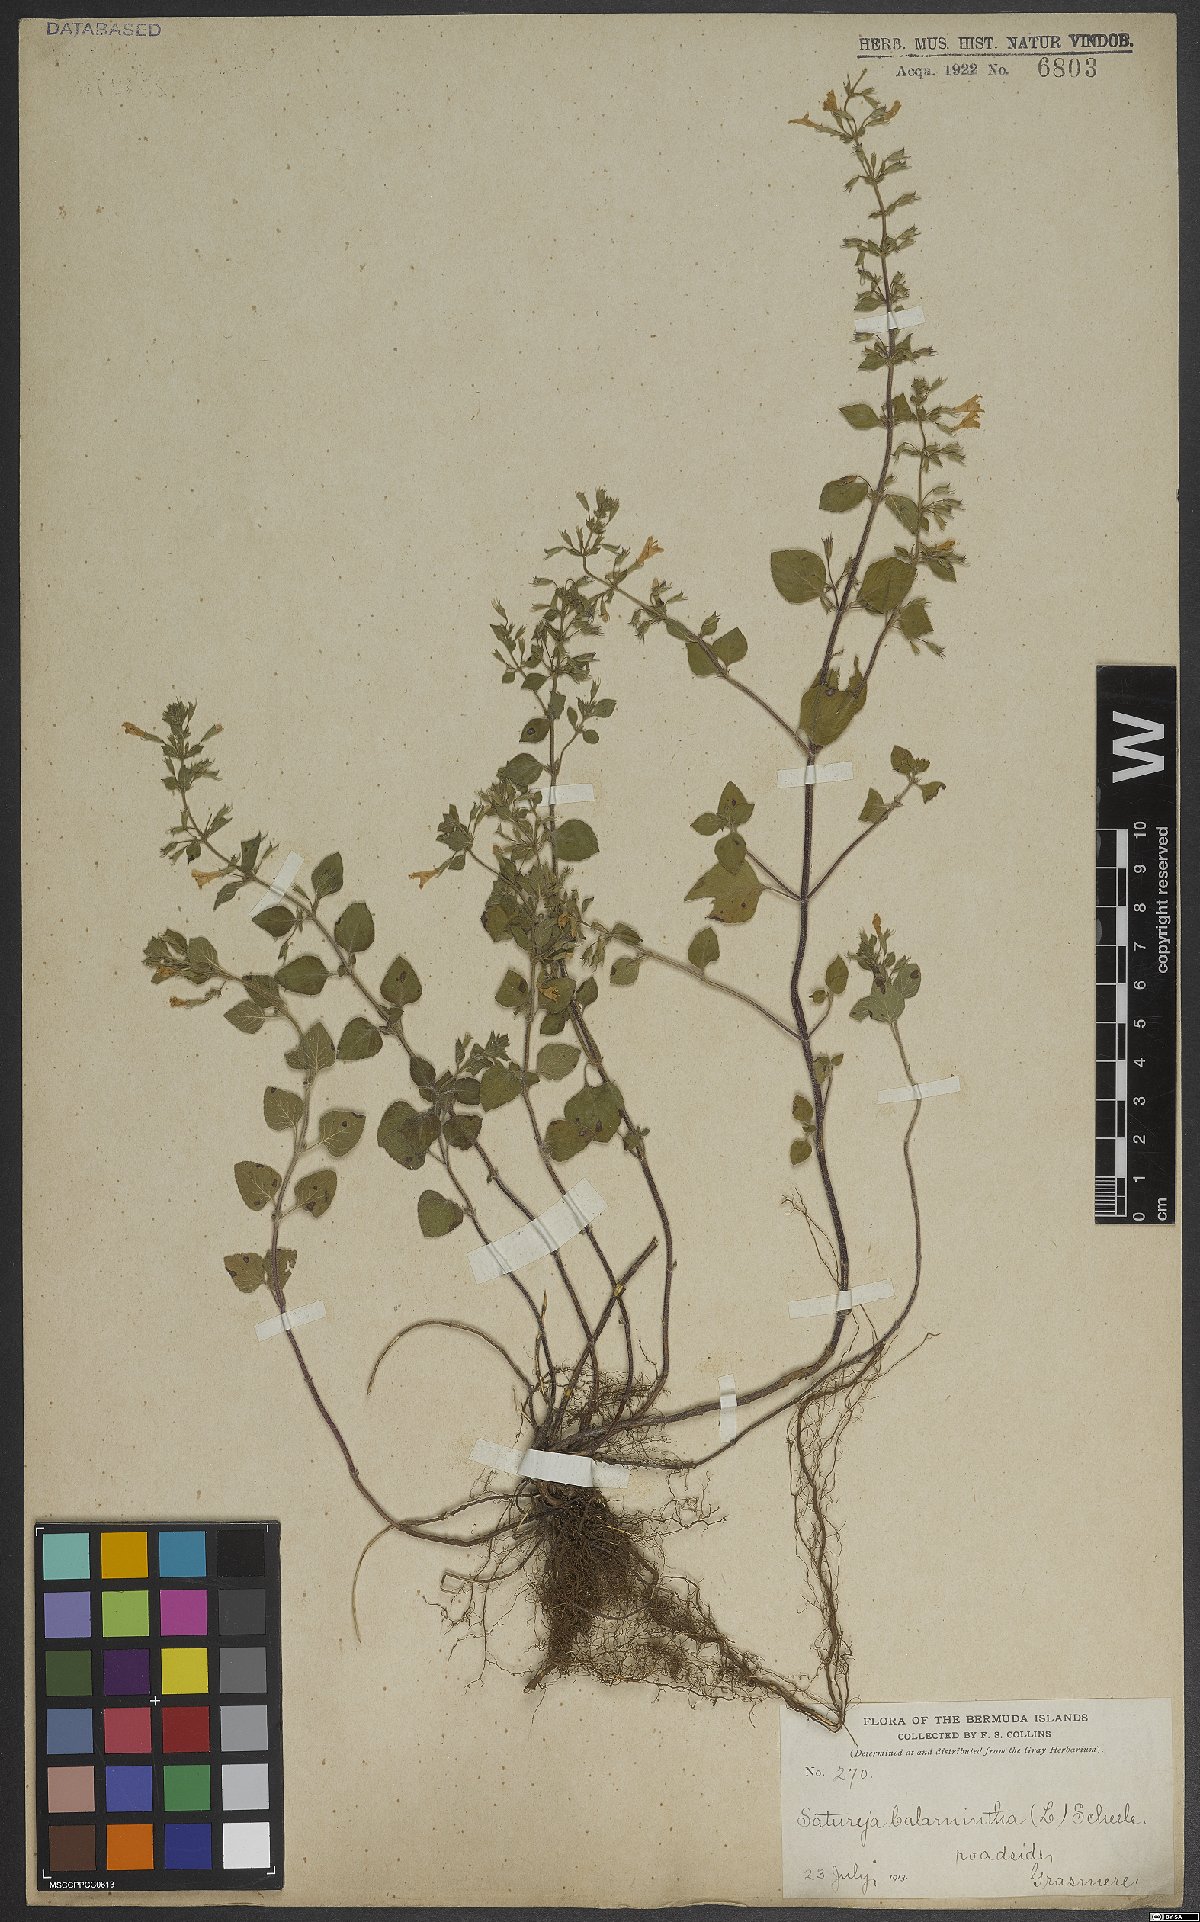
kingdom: Plantae
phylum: Tracheophyta
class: Magnoliopsida
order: Lamiales
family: Lamiaceae
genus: Clinopodium
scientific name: Clinopodium menthifolium
